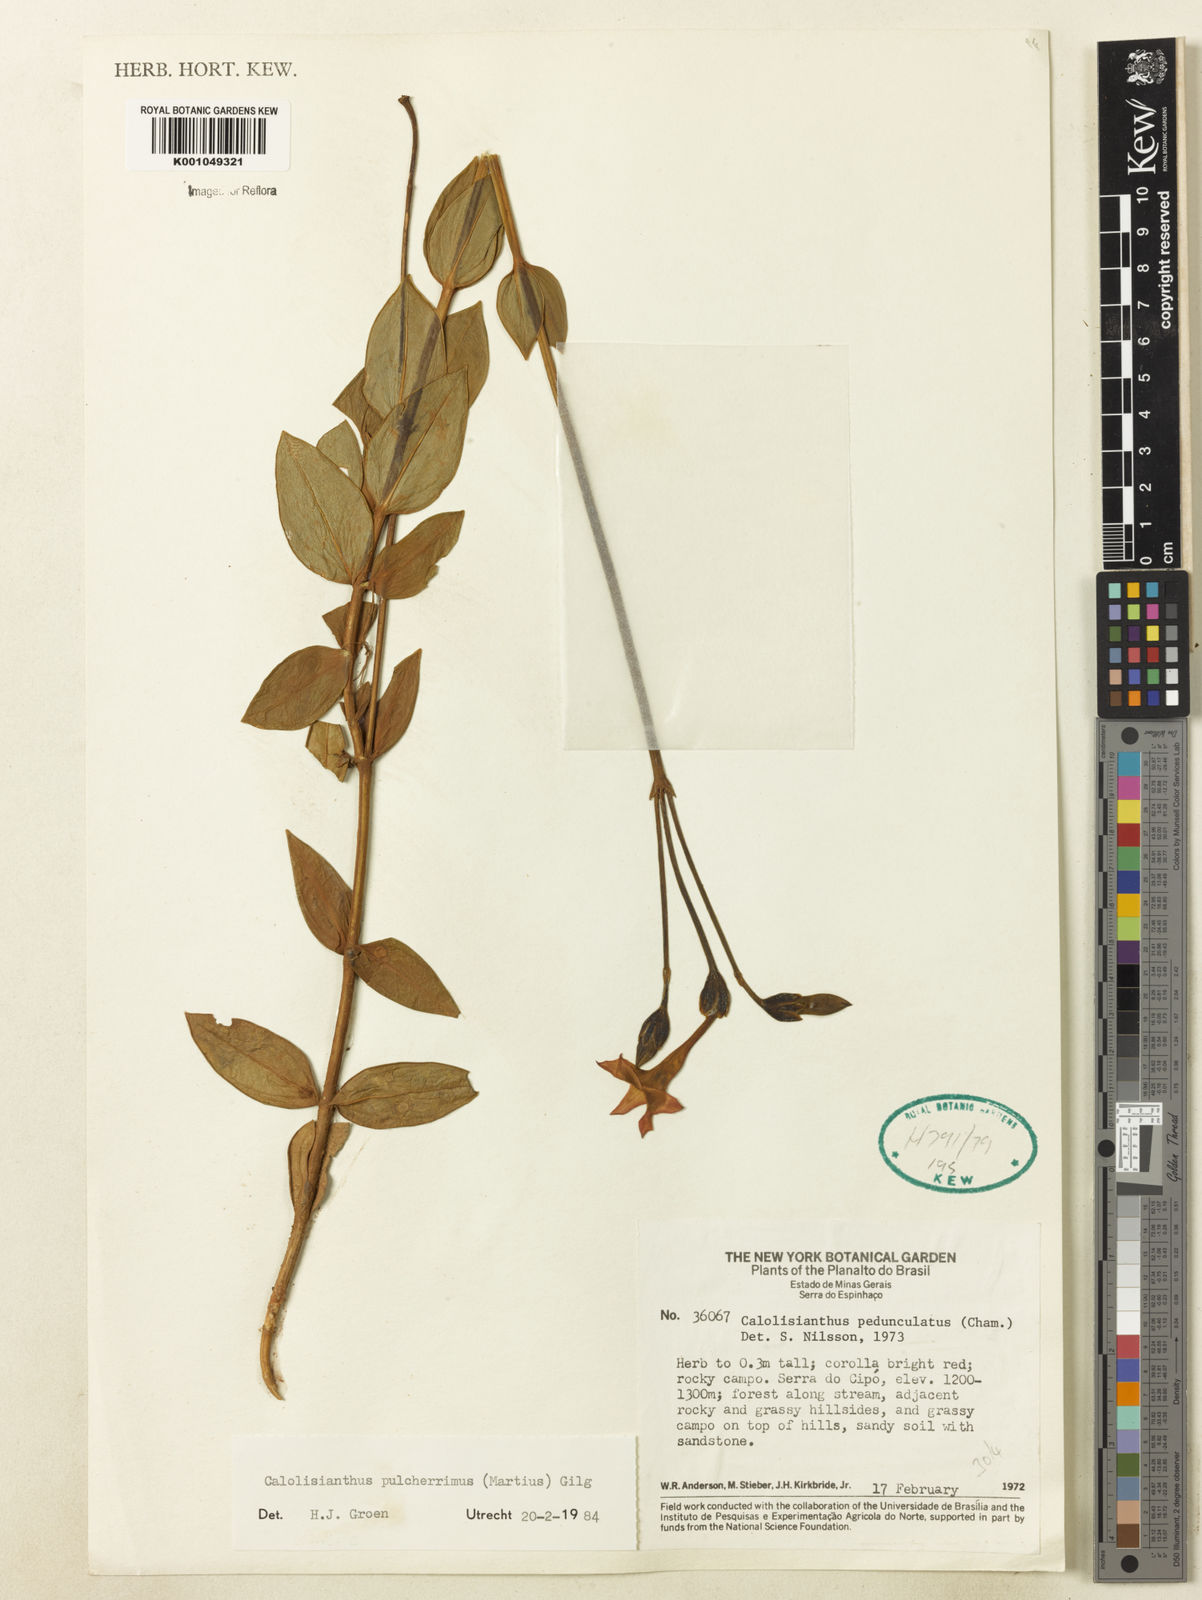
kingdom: Plantae
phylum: Tracheophyta
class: Magnoliopsida
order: Gentianales
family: Gentianaceae
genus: Calolisianthus
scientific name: Calolisianthus pulcherrimus
